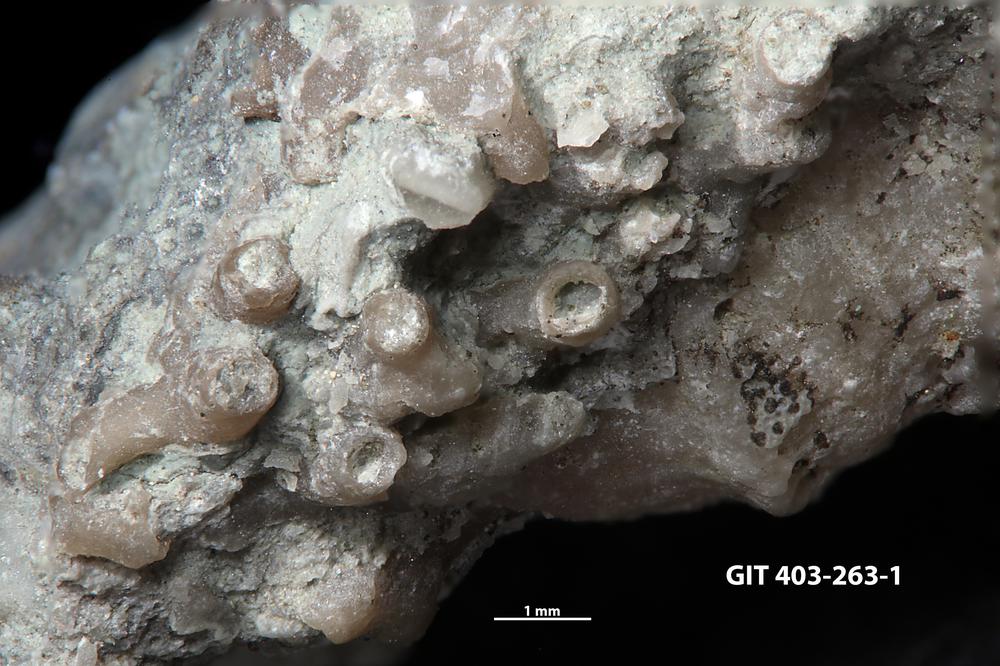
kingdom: Animalia
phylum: Cnidaria
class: Anthozoa
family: Auloporidae
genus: Aulopora
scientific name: Aulopora
